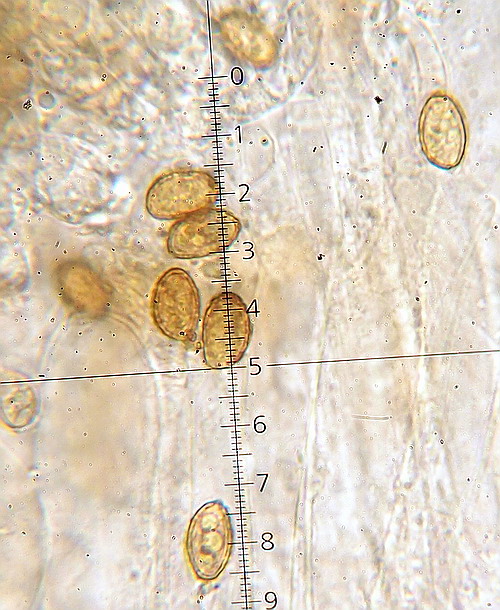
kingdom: Fungi
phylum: Basidiomycota
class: Agaricomycetes
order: Agaricales
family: Cortinariaceae
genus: Phlegmacium
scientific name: Phlegmacium
